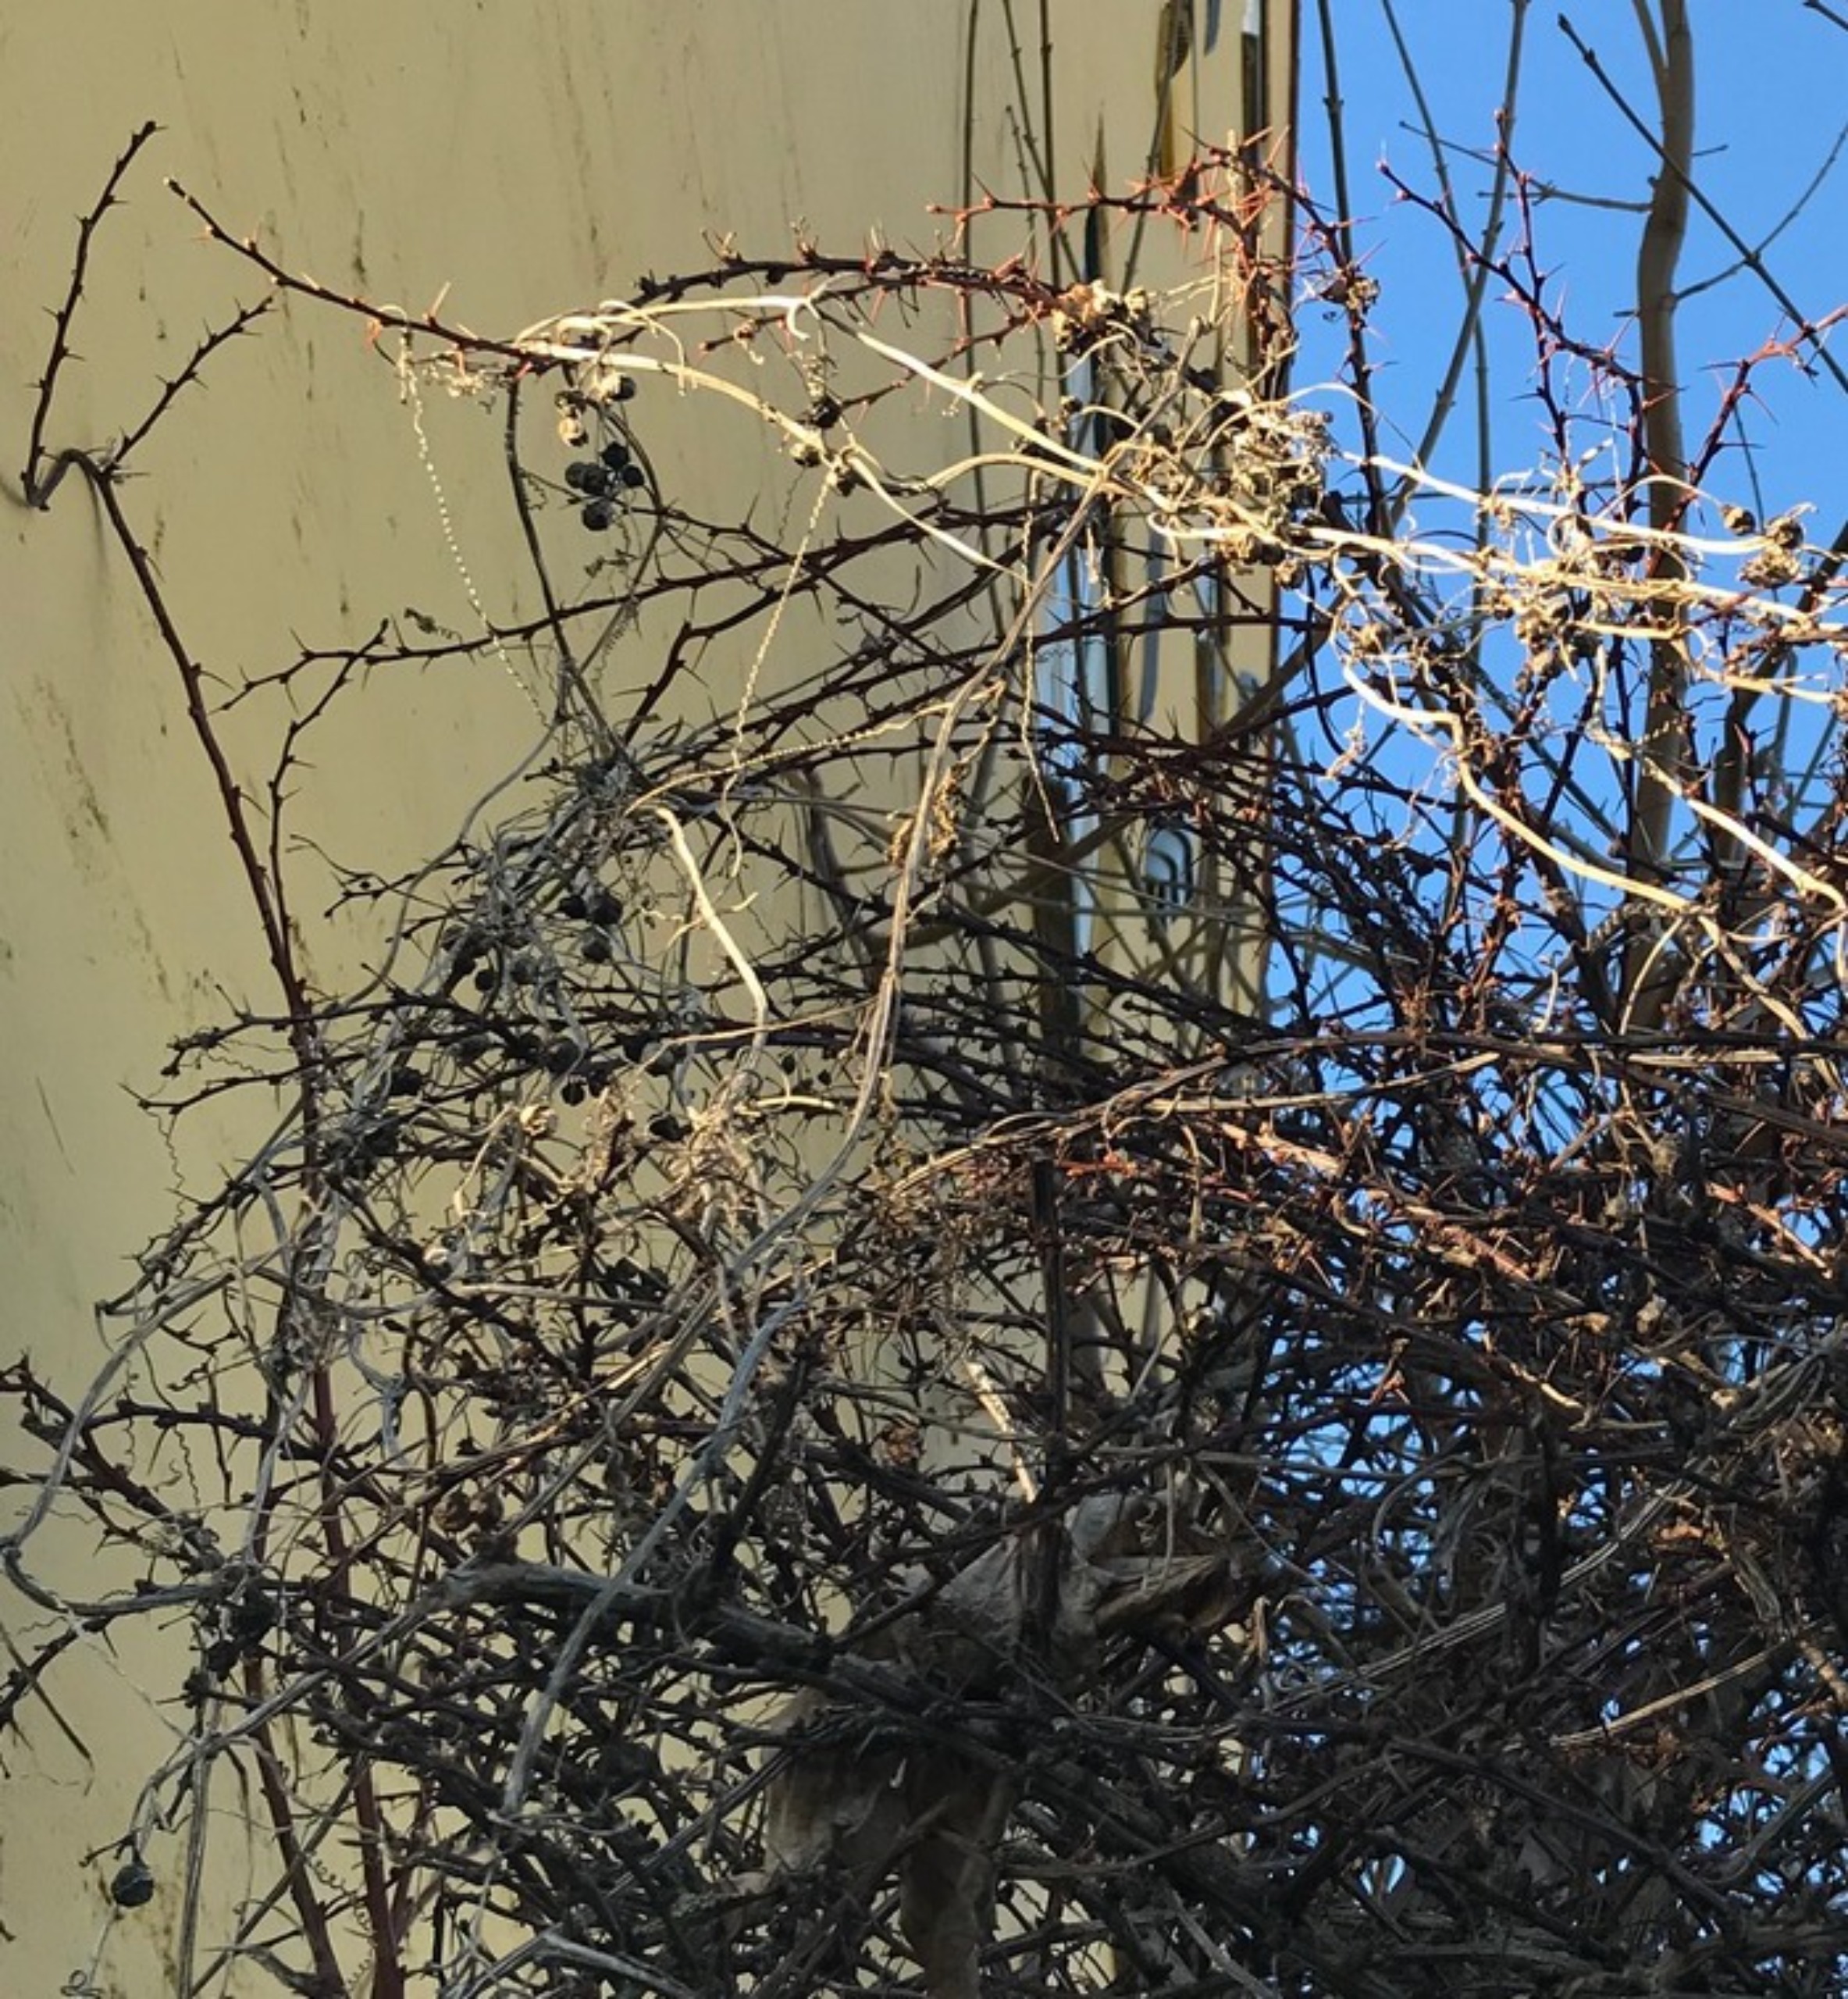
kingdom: Plantae
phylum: Tracheophyta
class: Magnoliopsida
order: Cucurbitales
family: Cucurbitaceae
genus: Bryonia
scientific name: Bryonia alba
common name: Enbo galdebær
